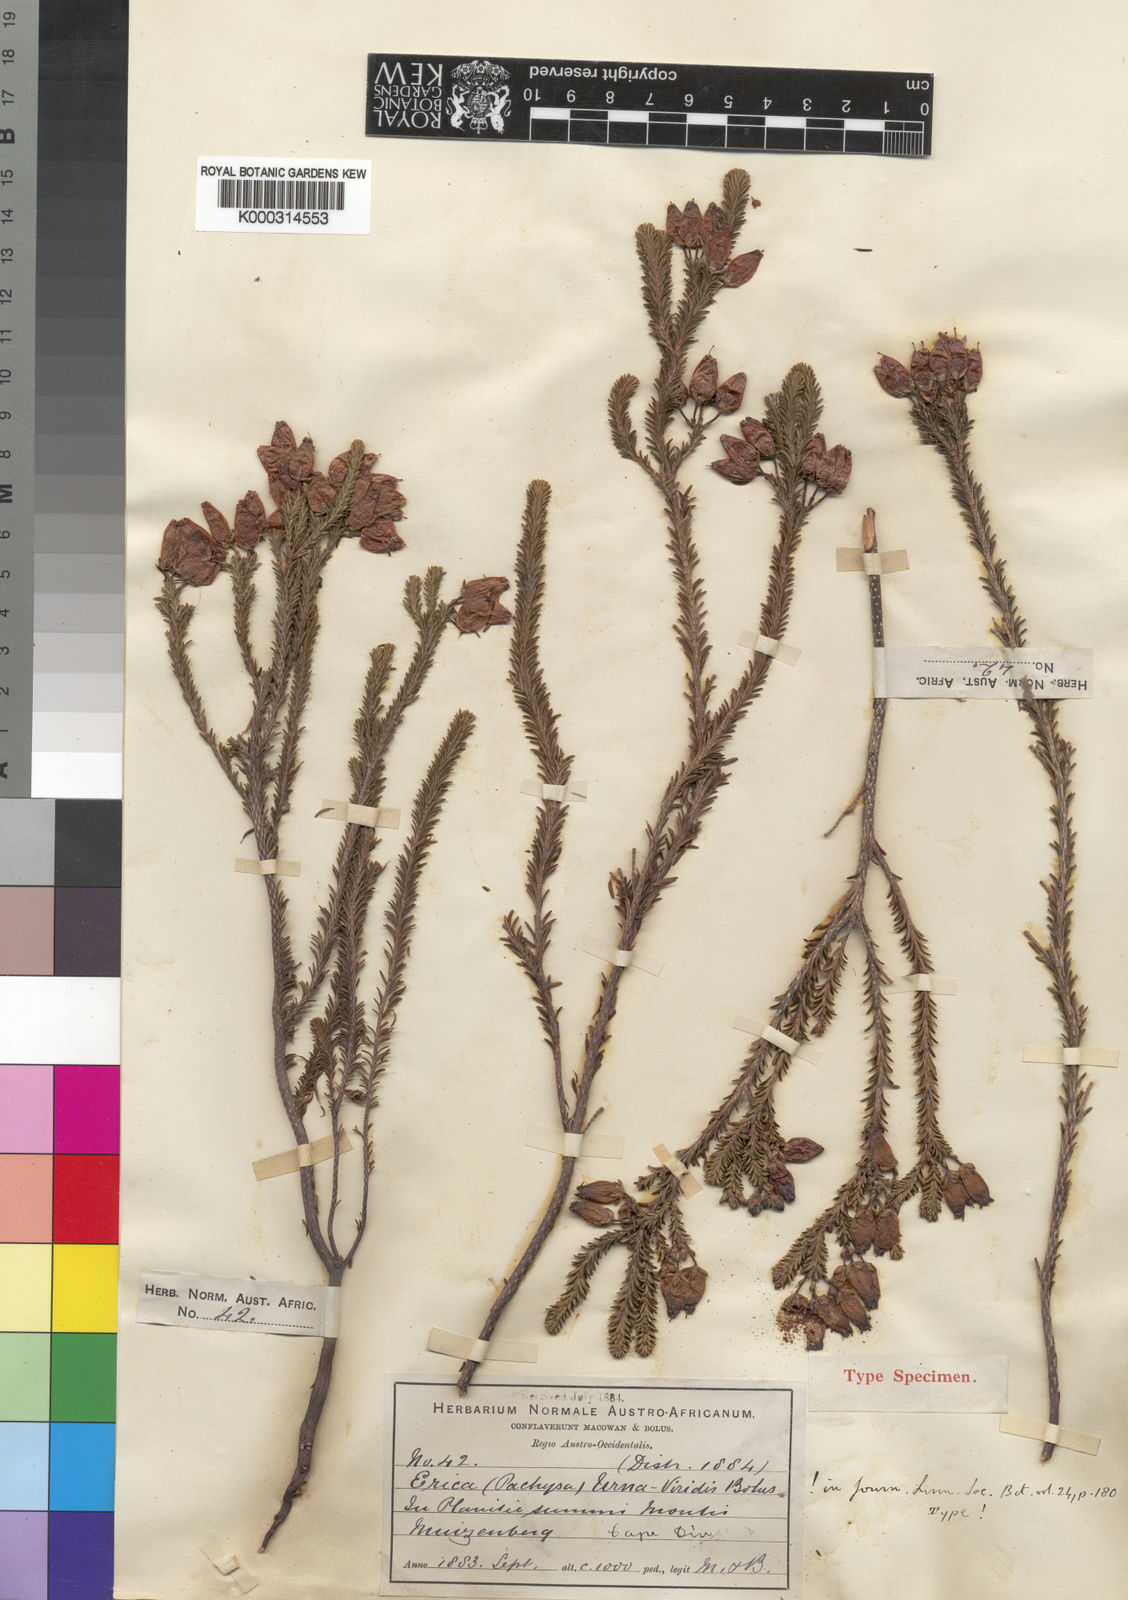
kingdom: Plantae
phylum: Tracheophyta
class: Magnoliopsida
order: Ericales
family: Ericaceae
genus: Erica
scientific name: Erica urna-viridis
